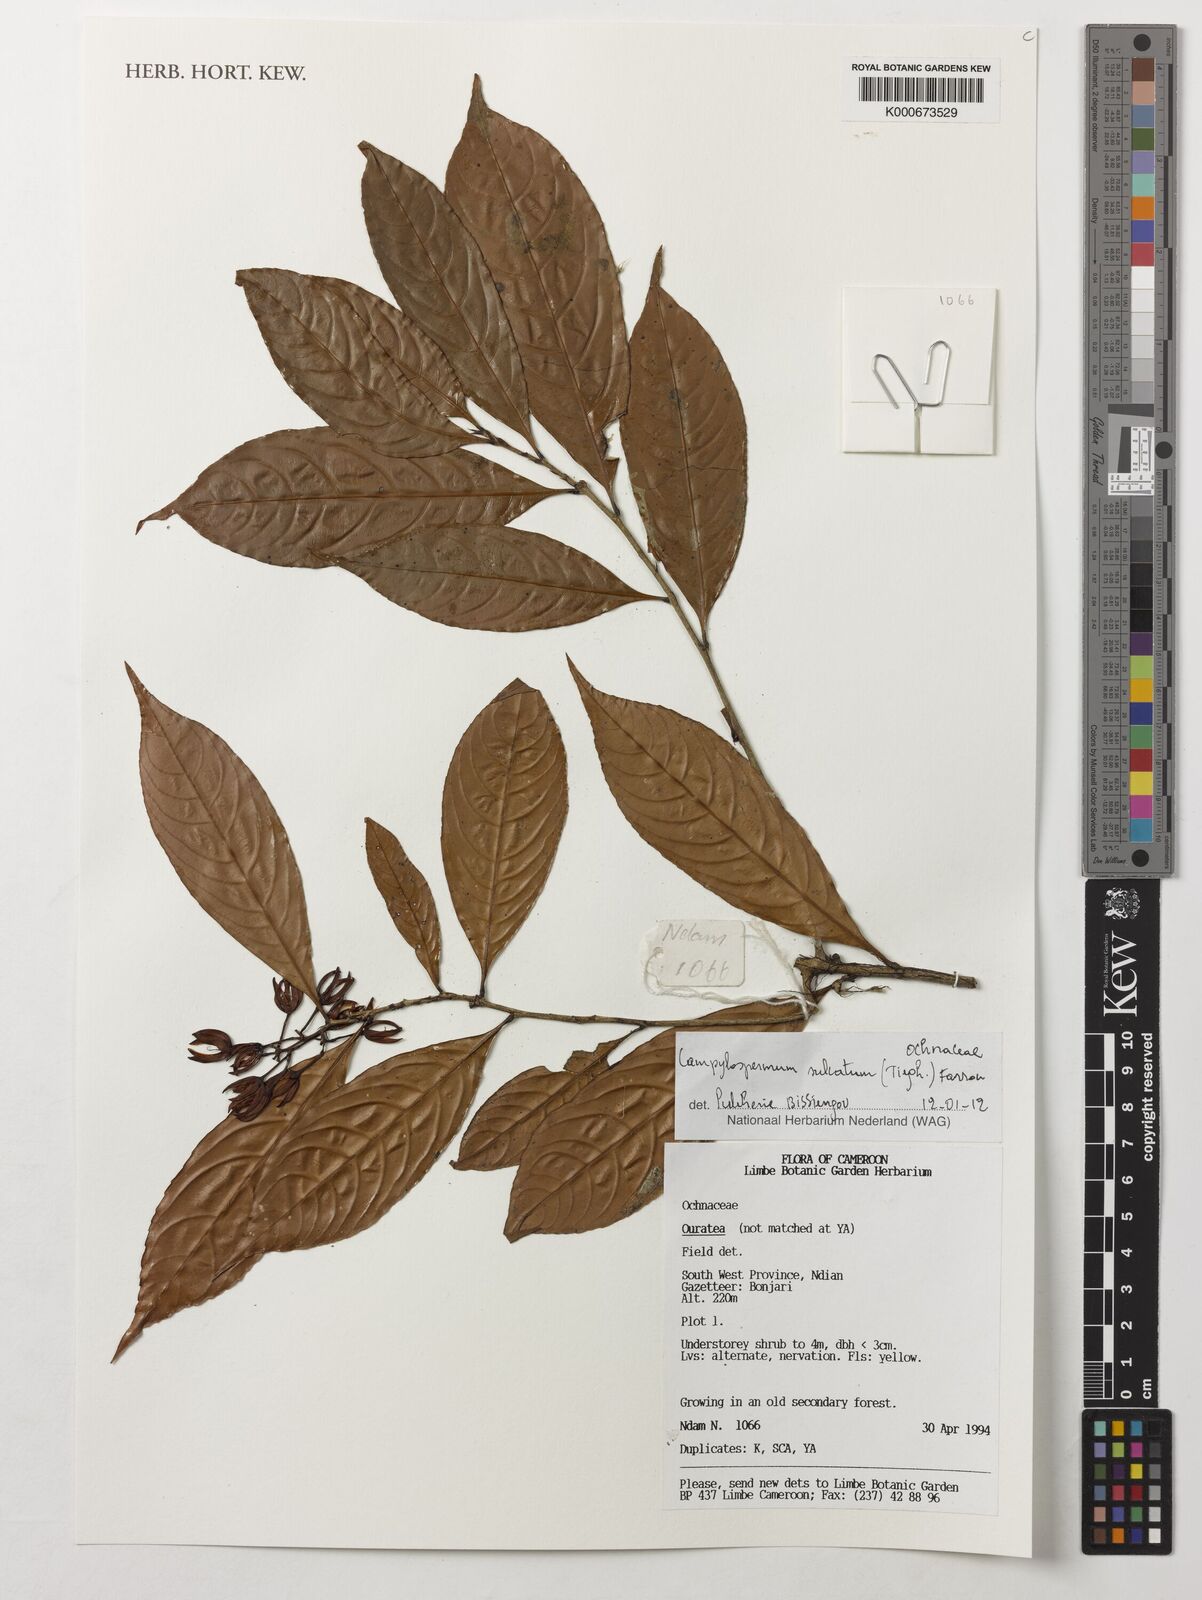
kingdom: Plantae
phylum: Tracheophyta
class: Magnoliopsida
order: Malpighiales
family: Ochnaceae
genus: Campylospermum
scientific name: Campylospermum sulcatum
